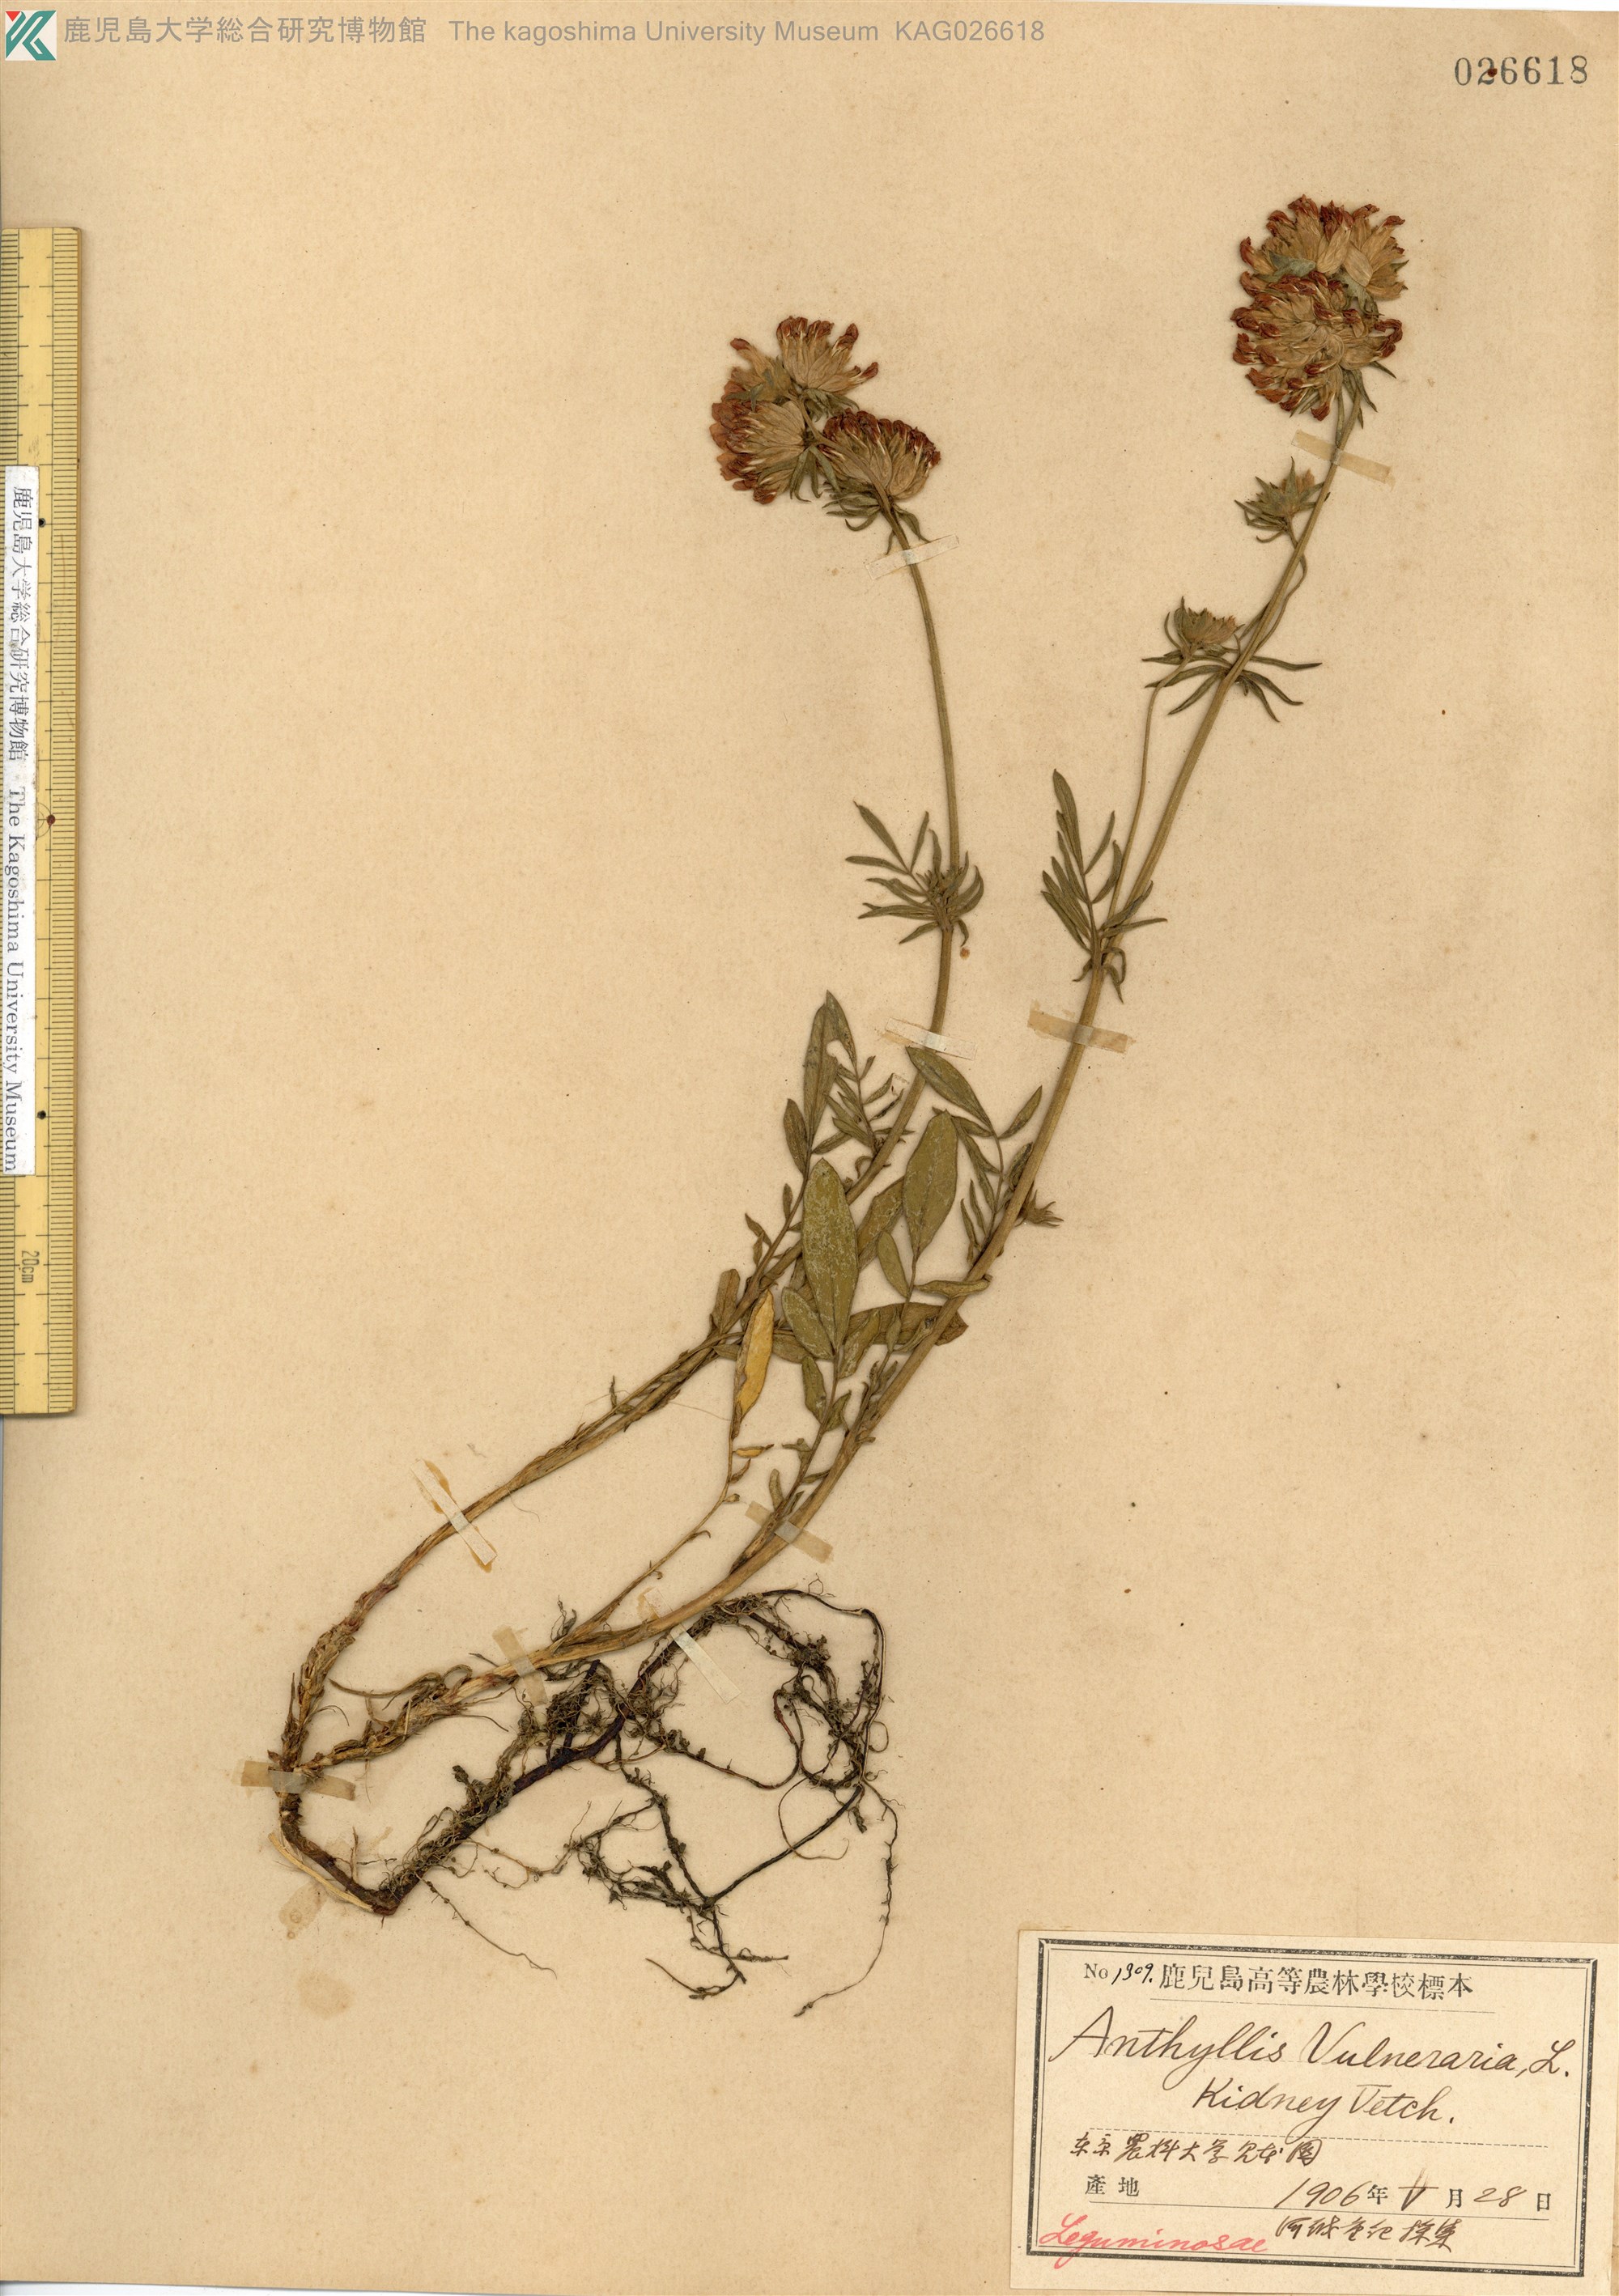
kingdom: Plantae
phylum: Tracheophyta
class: Magnoliopsida
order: Fabales
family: Fabaceae
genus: Anthyllis
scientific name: Anthyllis vulneraria
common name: Kidney vetch
